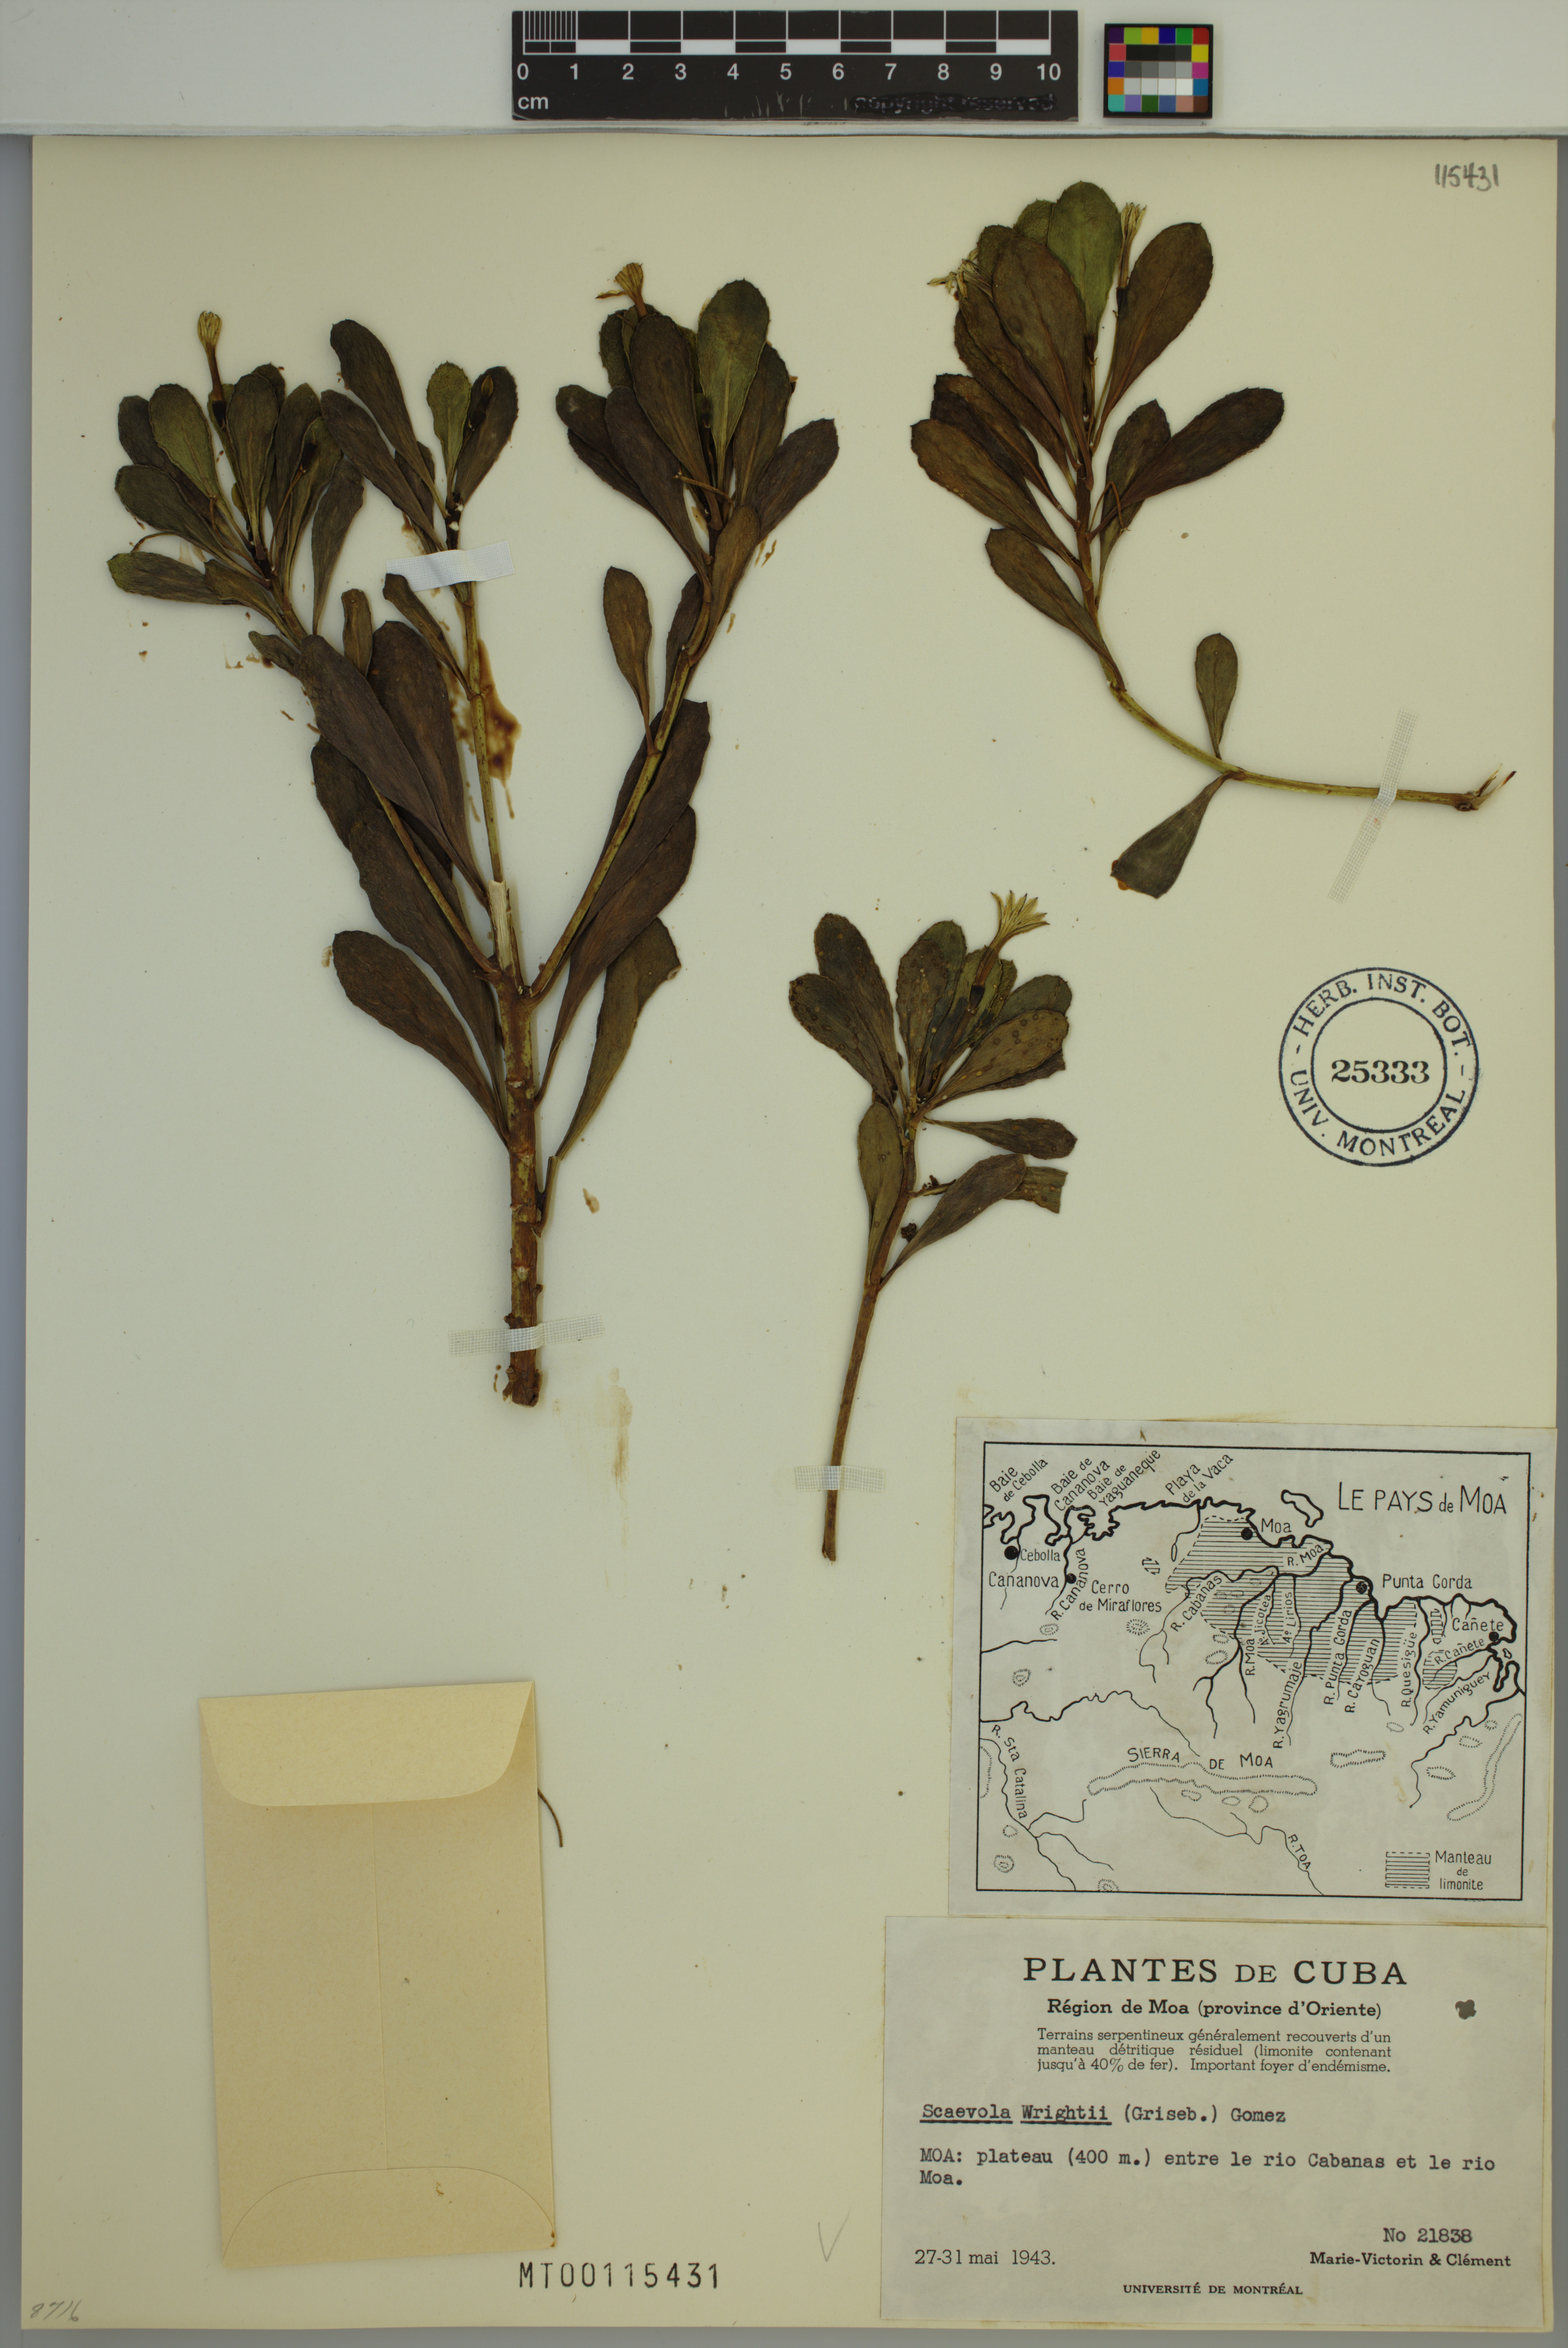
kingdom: Plantae
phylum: Tracheophyta
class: Magnoliopsida
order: Asterales
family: Goodeniaceae
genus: Scaevola
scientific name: Scaevola wrightii
